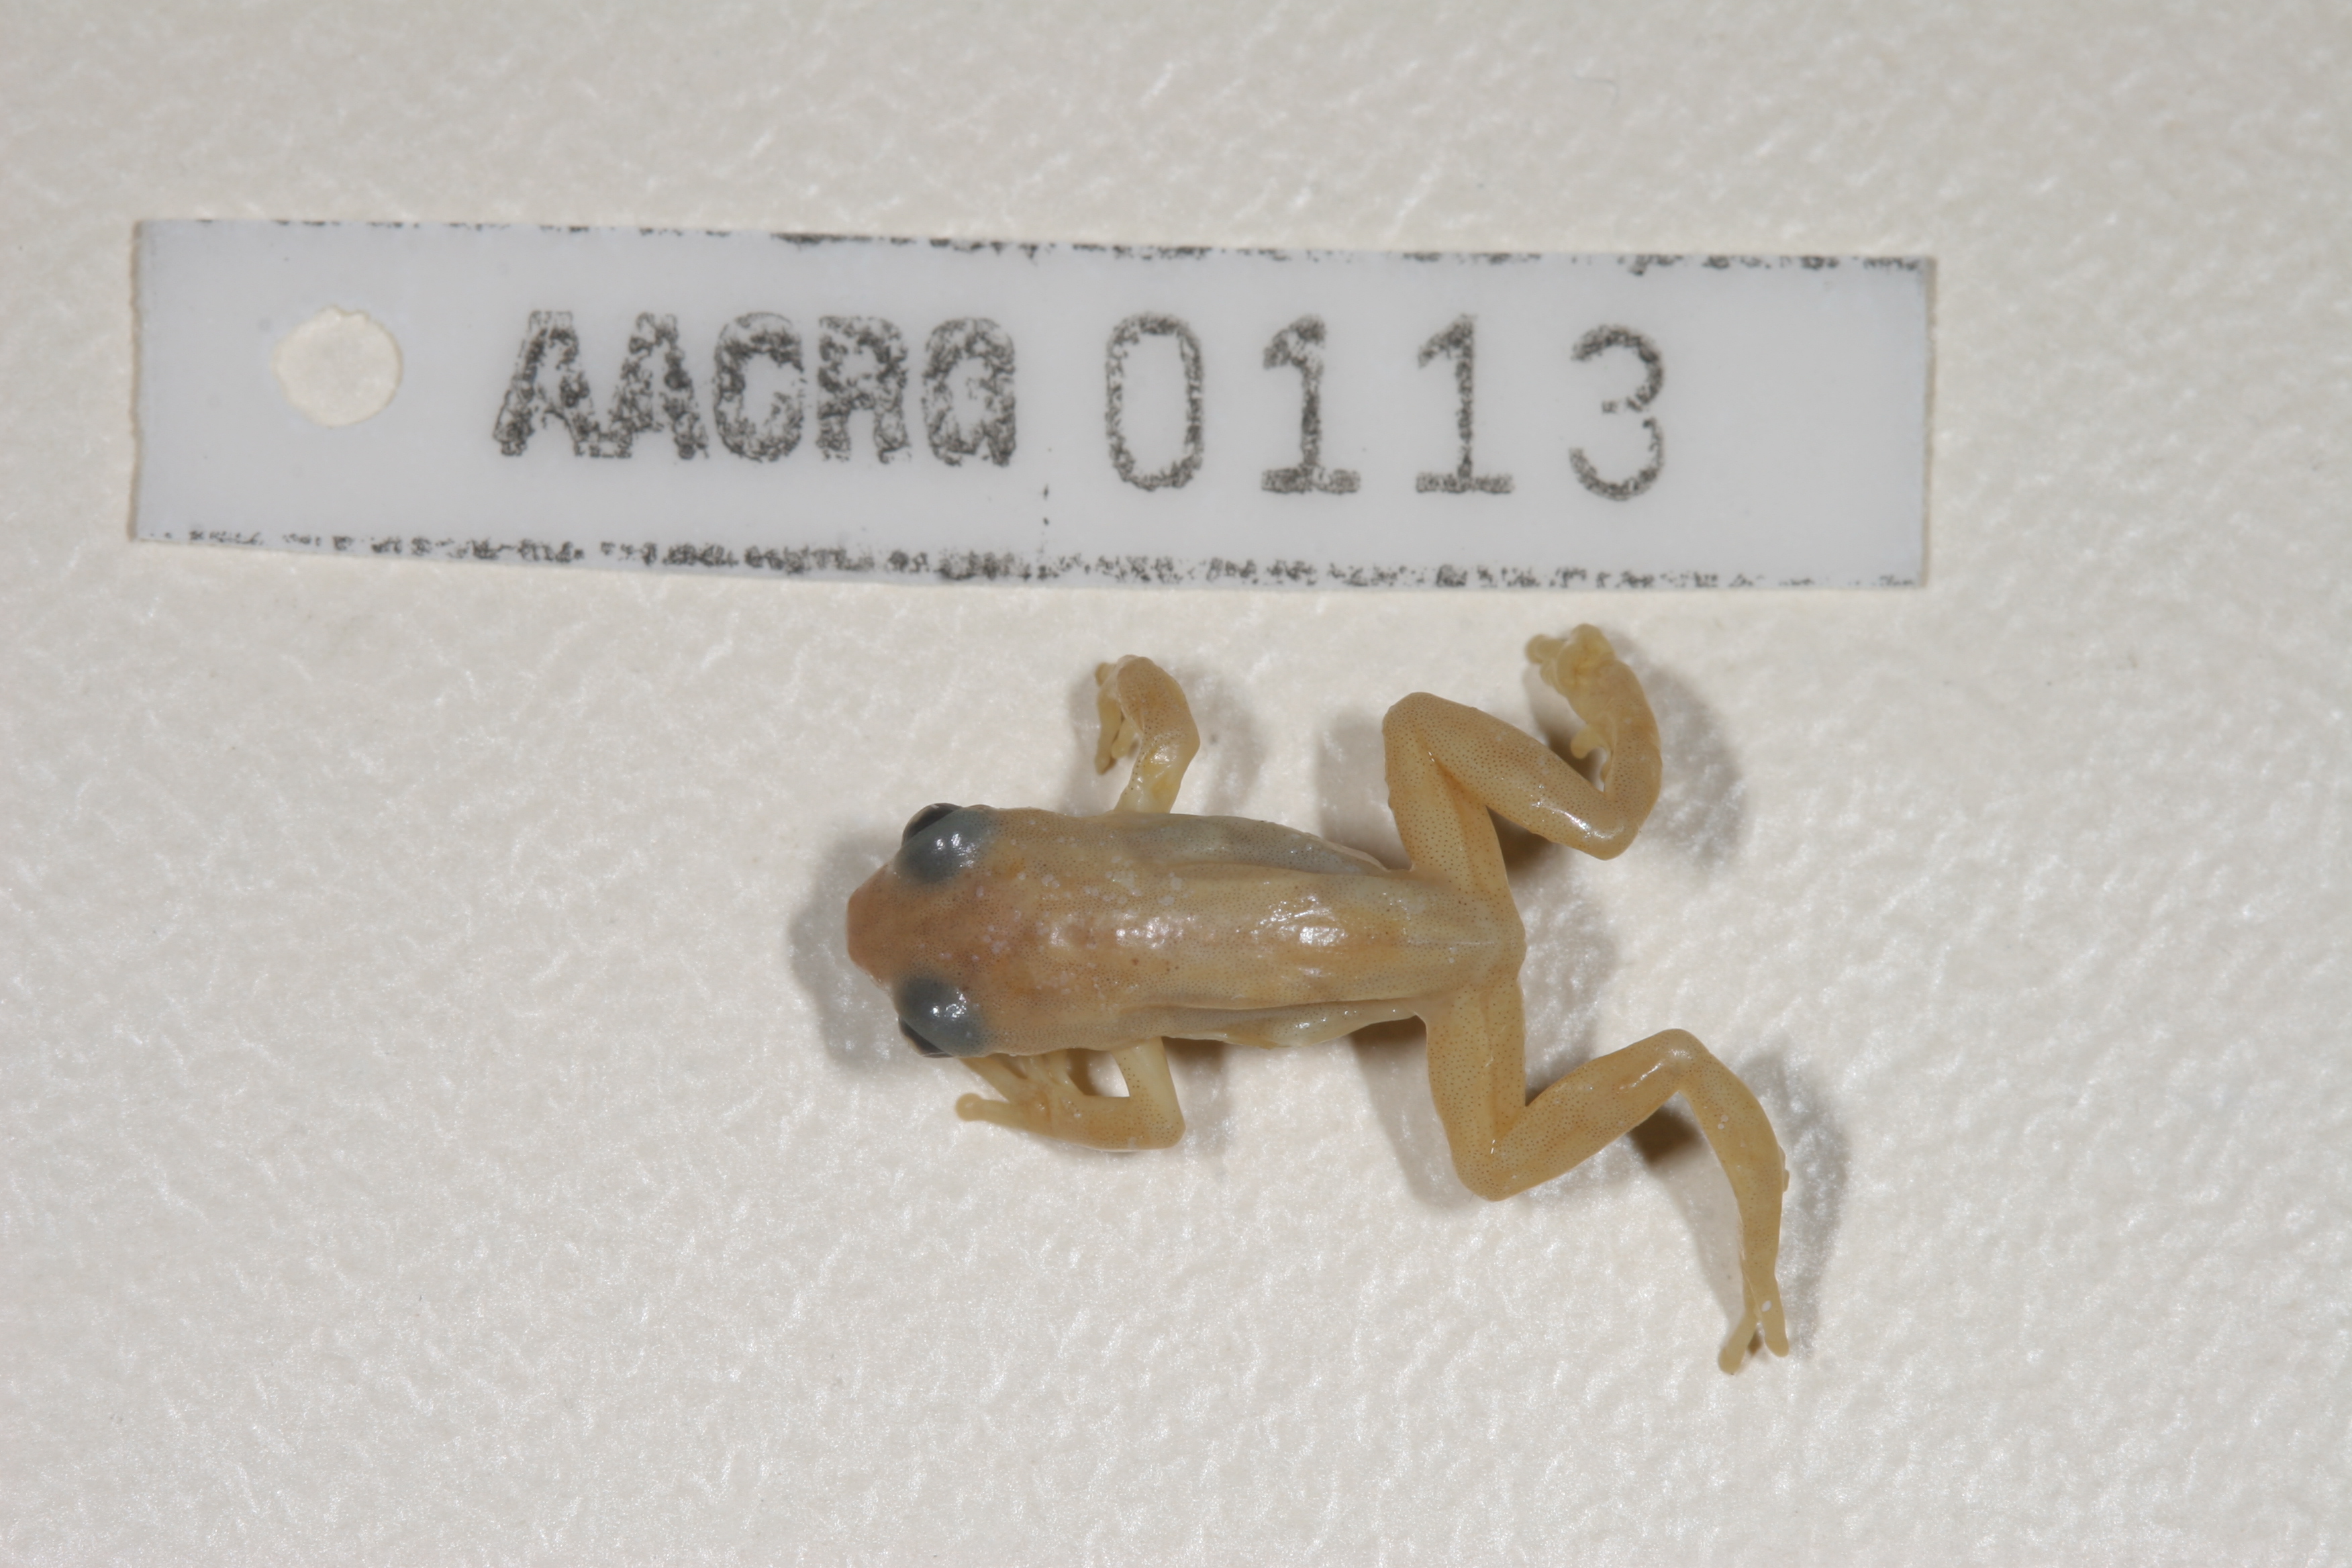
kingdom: Animalia
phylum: Chordata
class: Amphibia
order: Anura
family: Hyperoliidae
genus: Afrixalus
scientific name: Afrixalus aureus
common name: Golden banana frog
